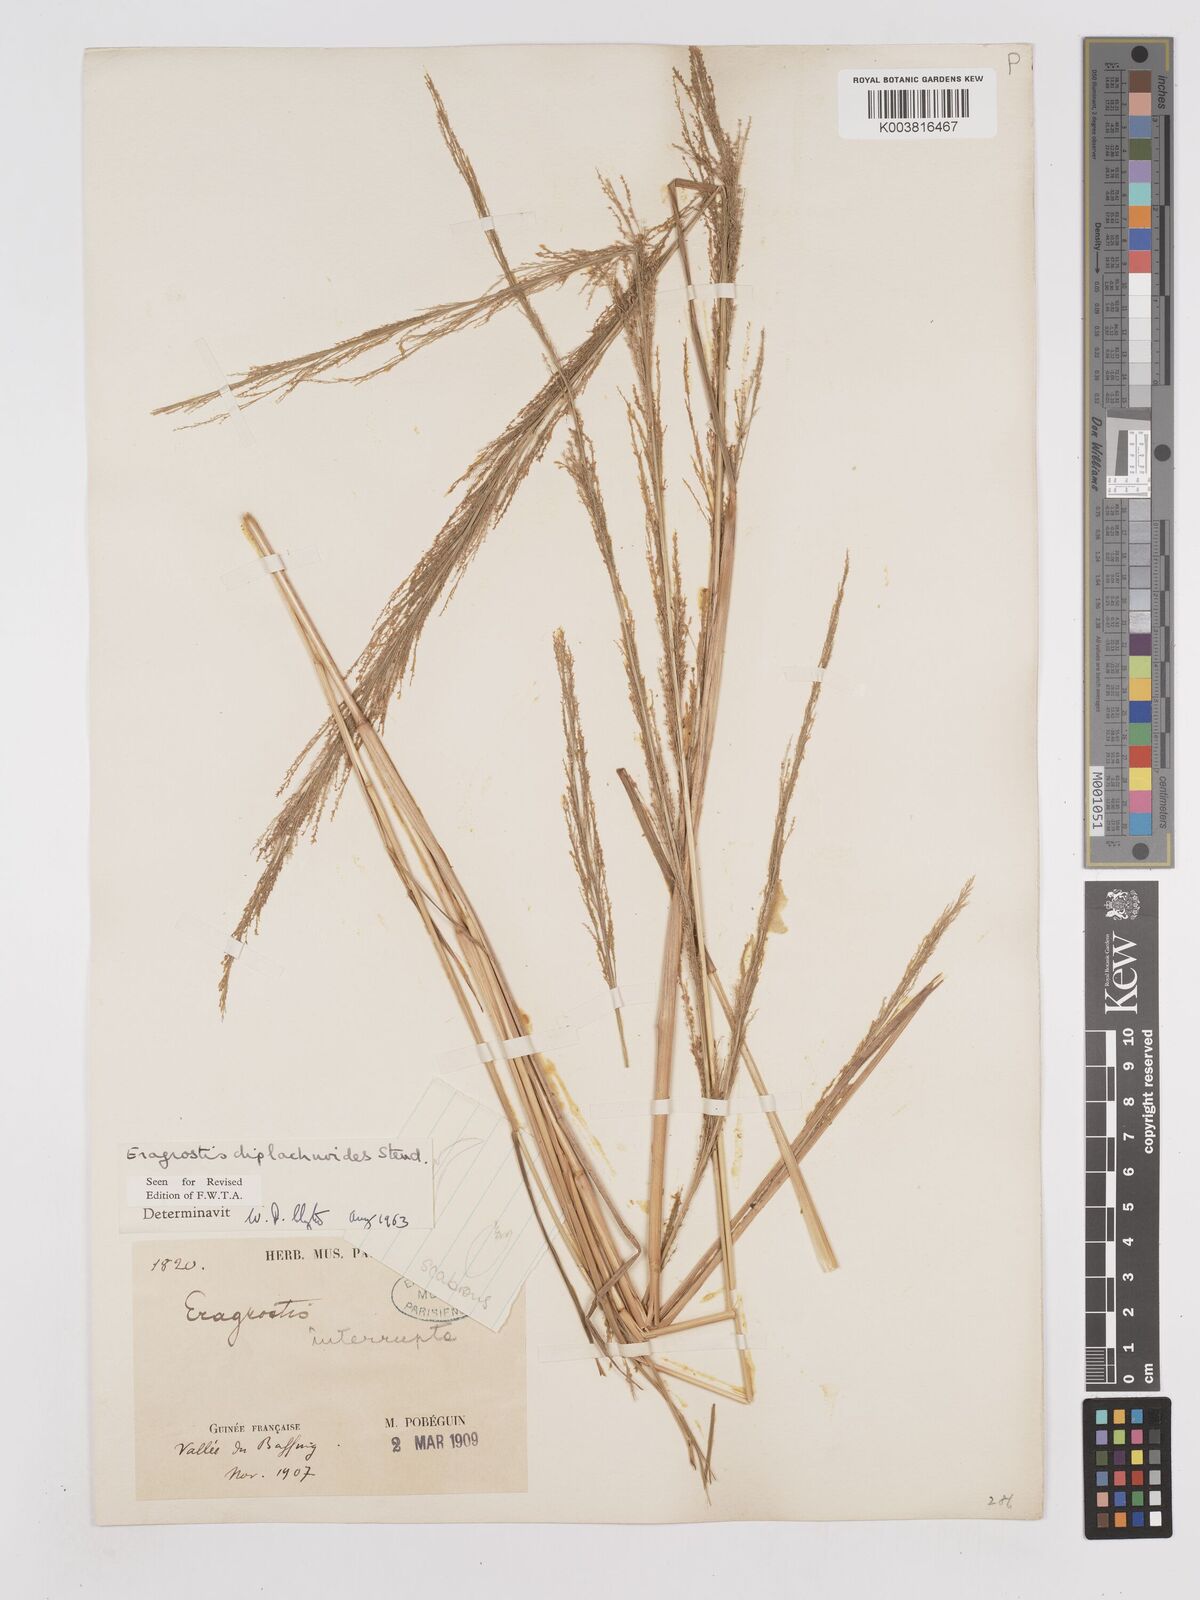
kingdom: Plantae
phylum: Tracheophyta
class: Liliopsida
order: Poales
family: Poaceae
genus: Eragrostis
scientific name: Eragrostis japonica
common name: Pond lovegrass
